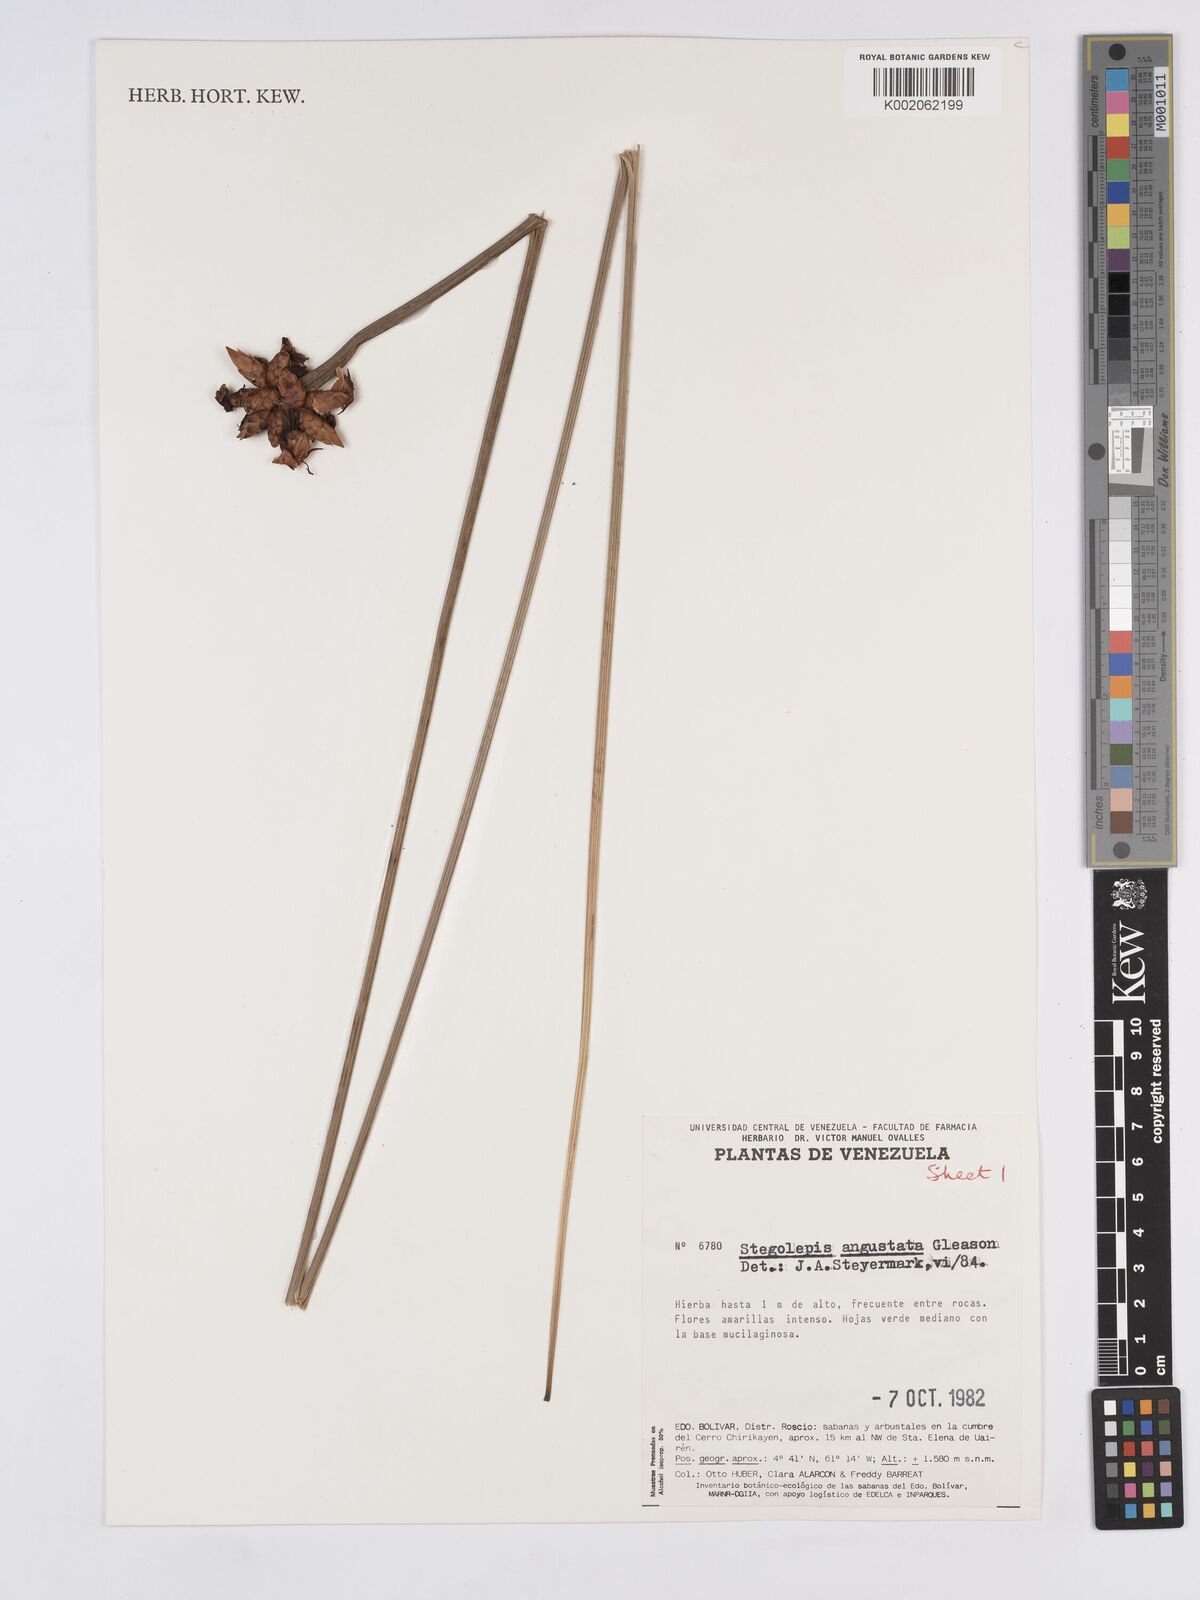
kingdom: Plantae
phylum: Tracheophyta
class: Liliopsida
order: Poales
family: Rapateaceae
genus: Stegolepis
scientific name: Stegolepis angustata
